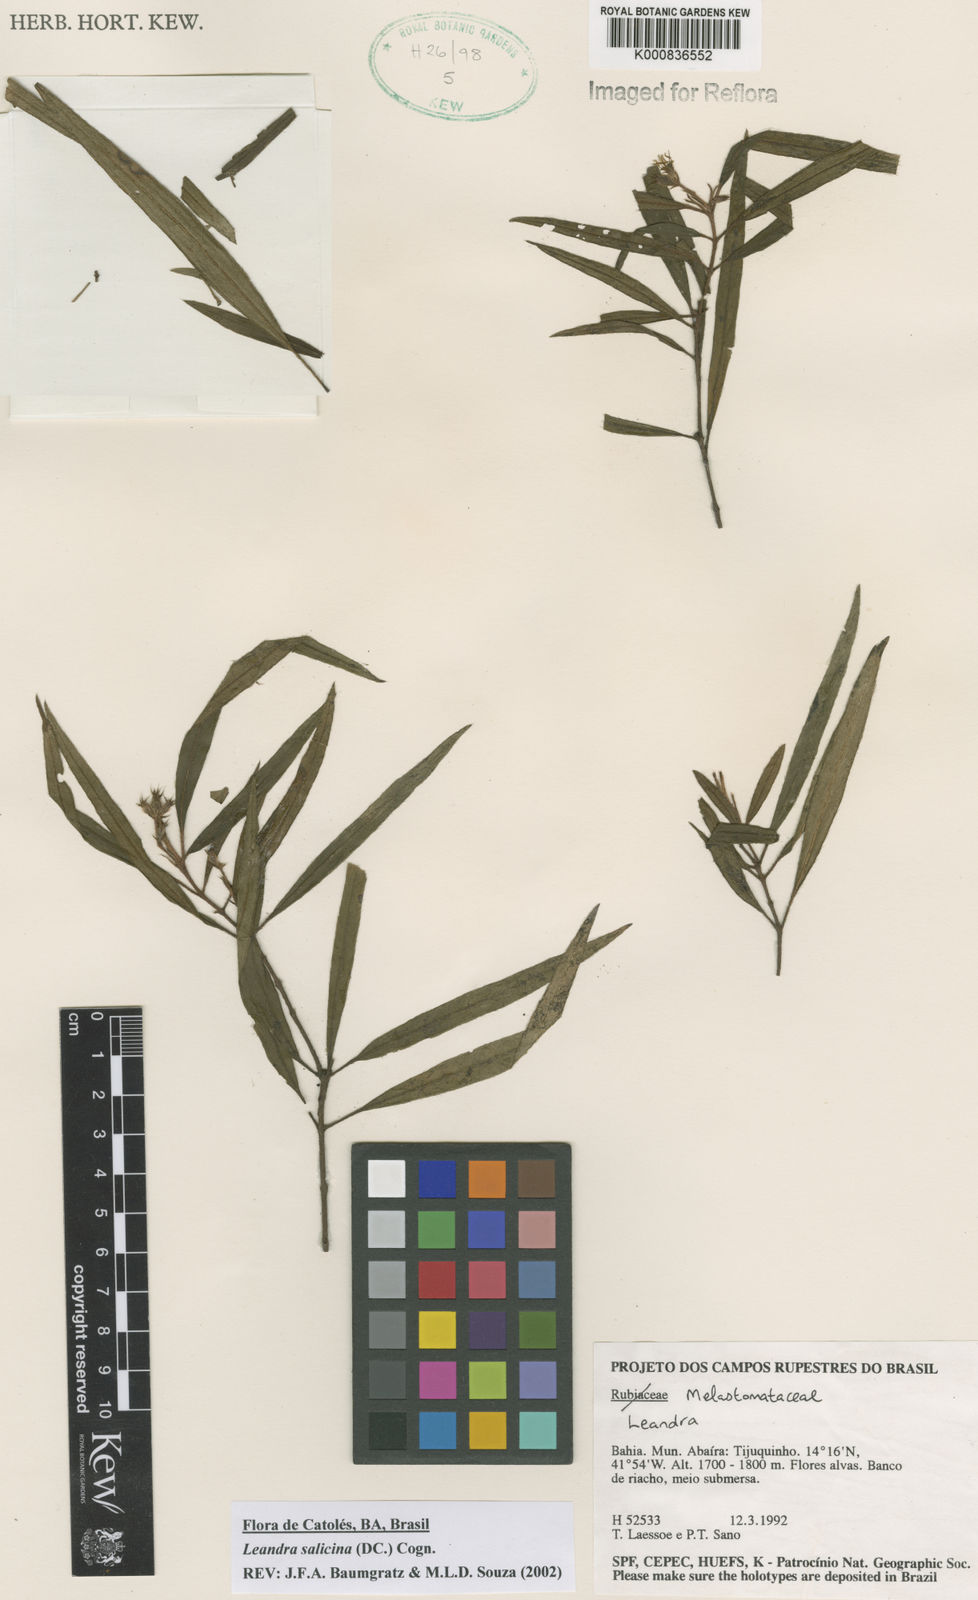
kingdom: Plantae
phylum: Tracheophyta
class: Magnoliopsida
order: Myrtales
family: Melastomataceae
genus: Miconia
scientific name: Miconia salicina
